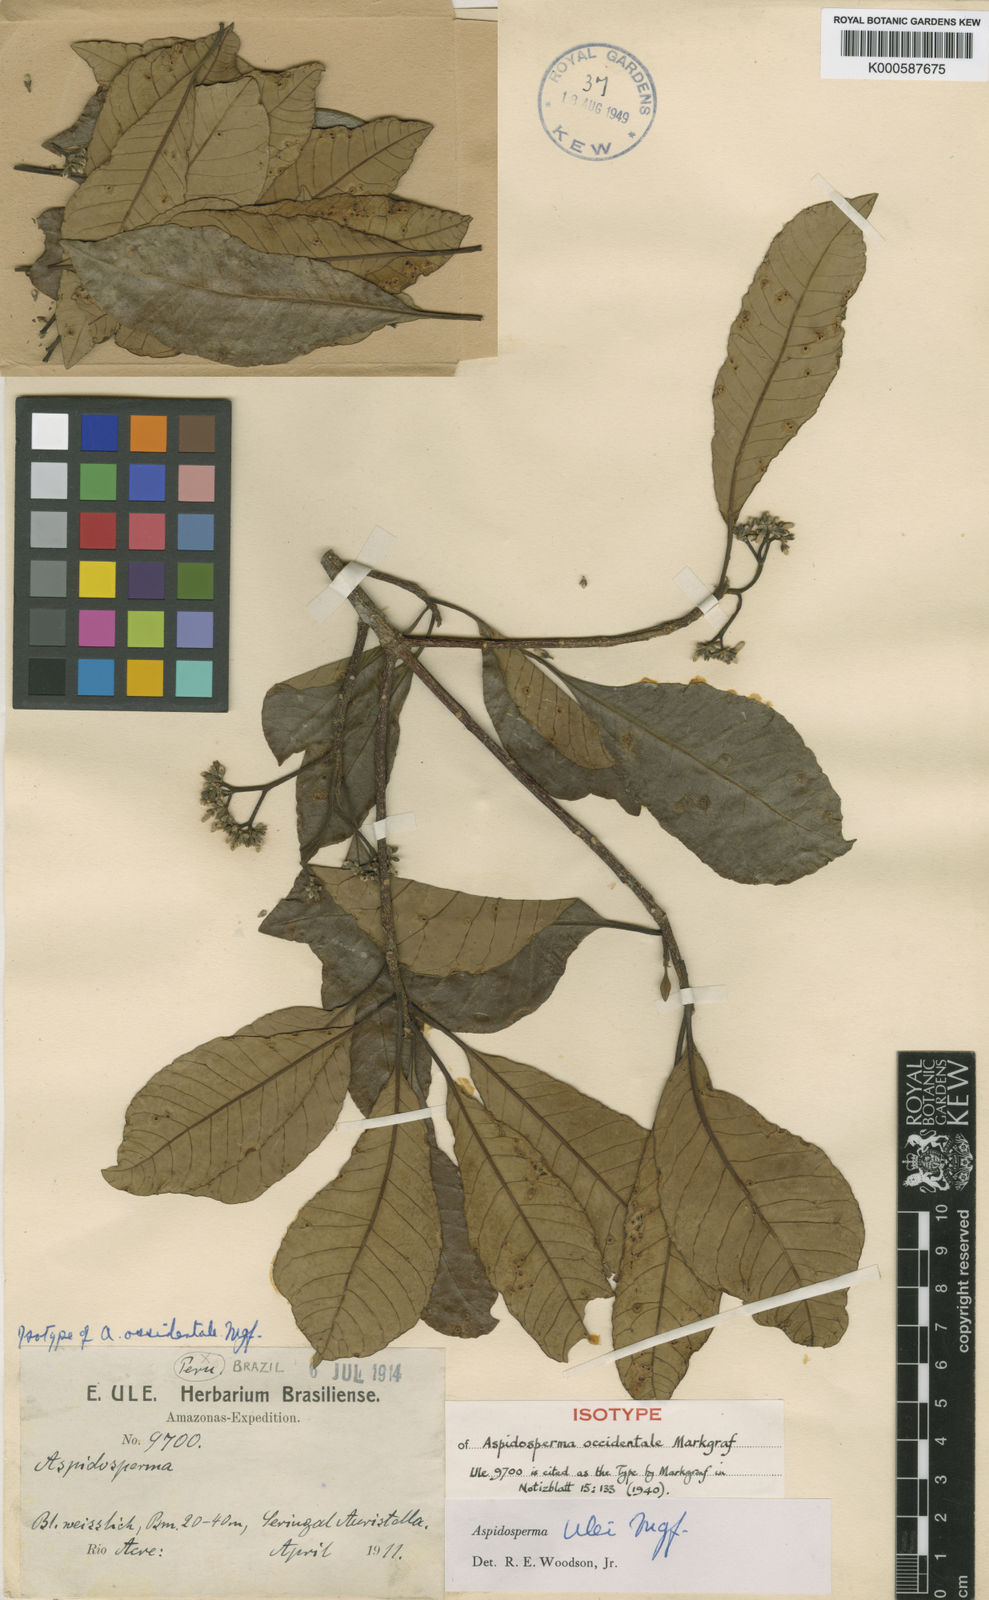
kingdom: Plantae
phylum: Tracheophyta
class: Magnoliopsida
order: Gentianales
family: Apocynaceae
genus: Aspidosperma
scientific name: Aspidosperma ulei
